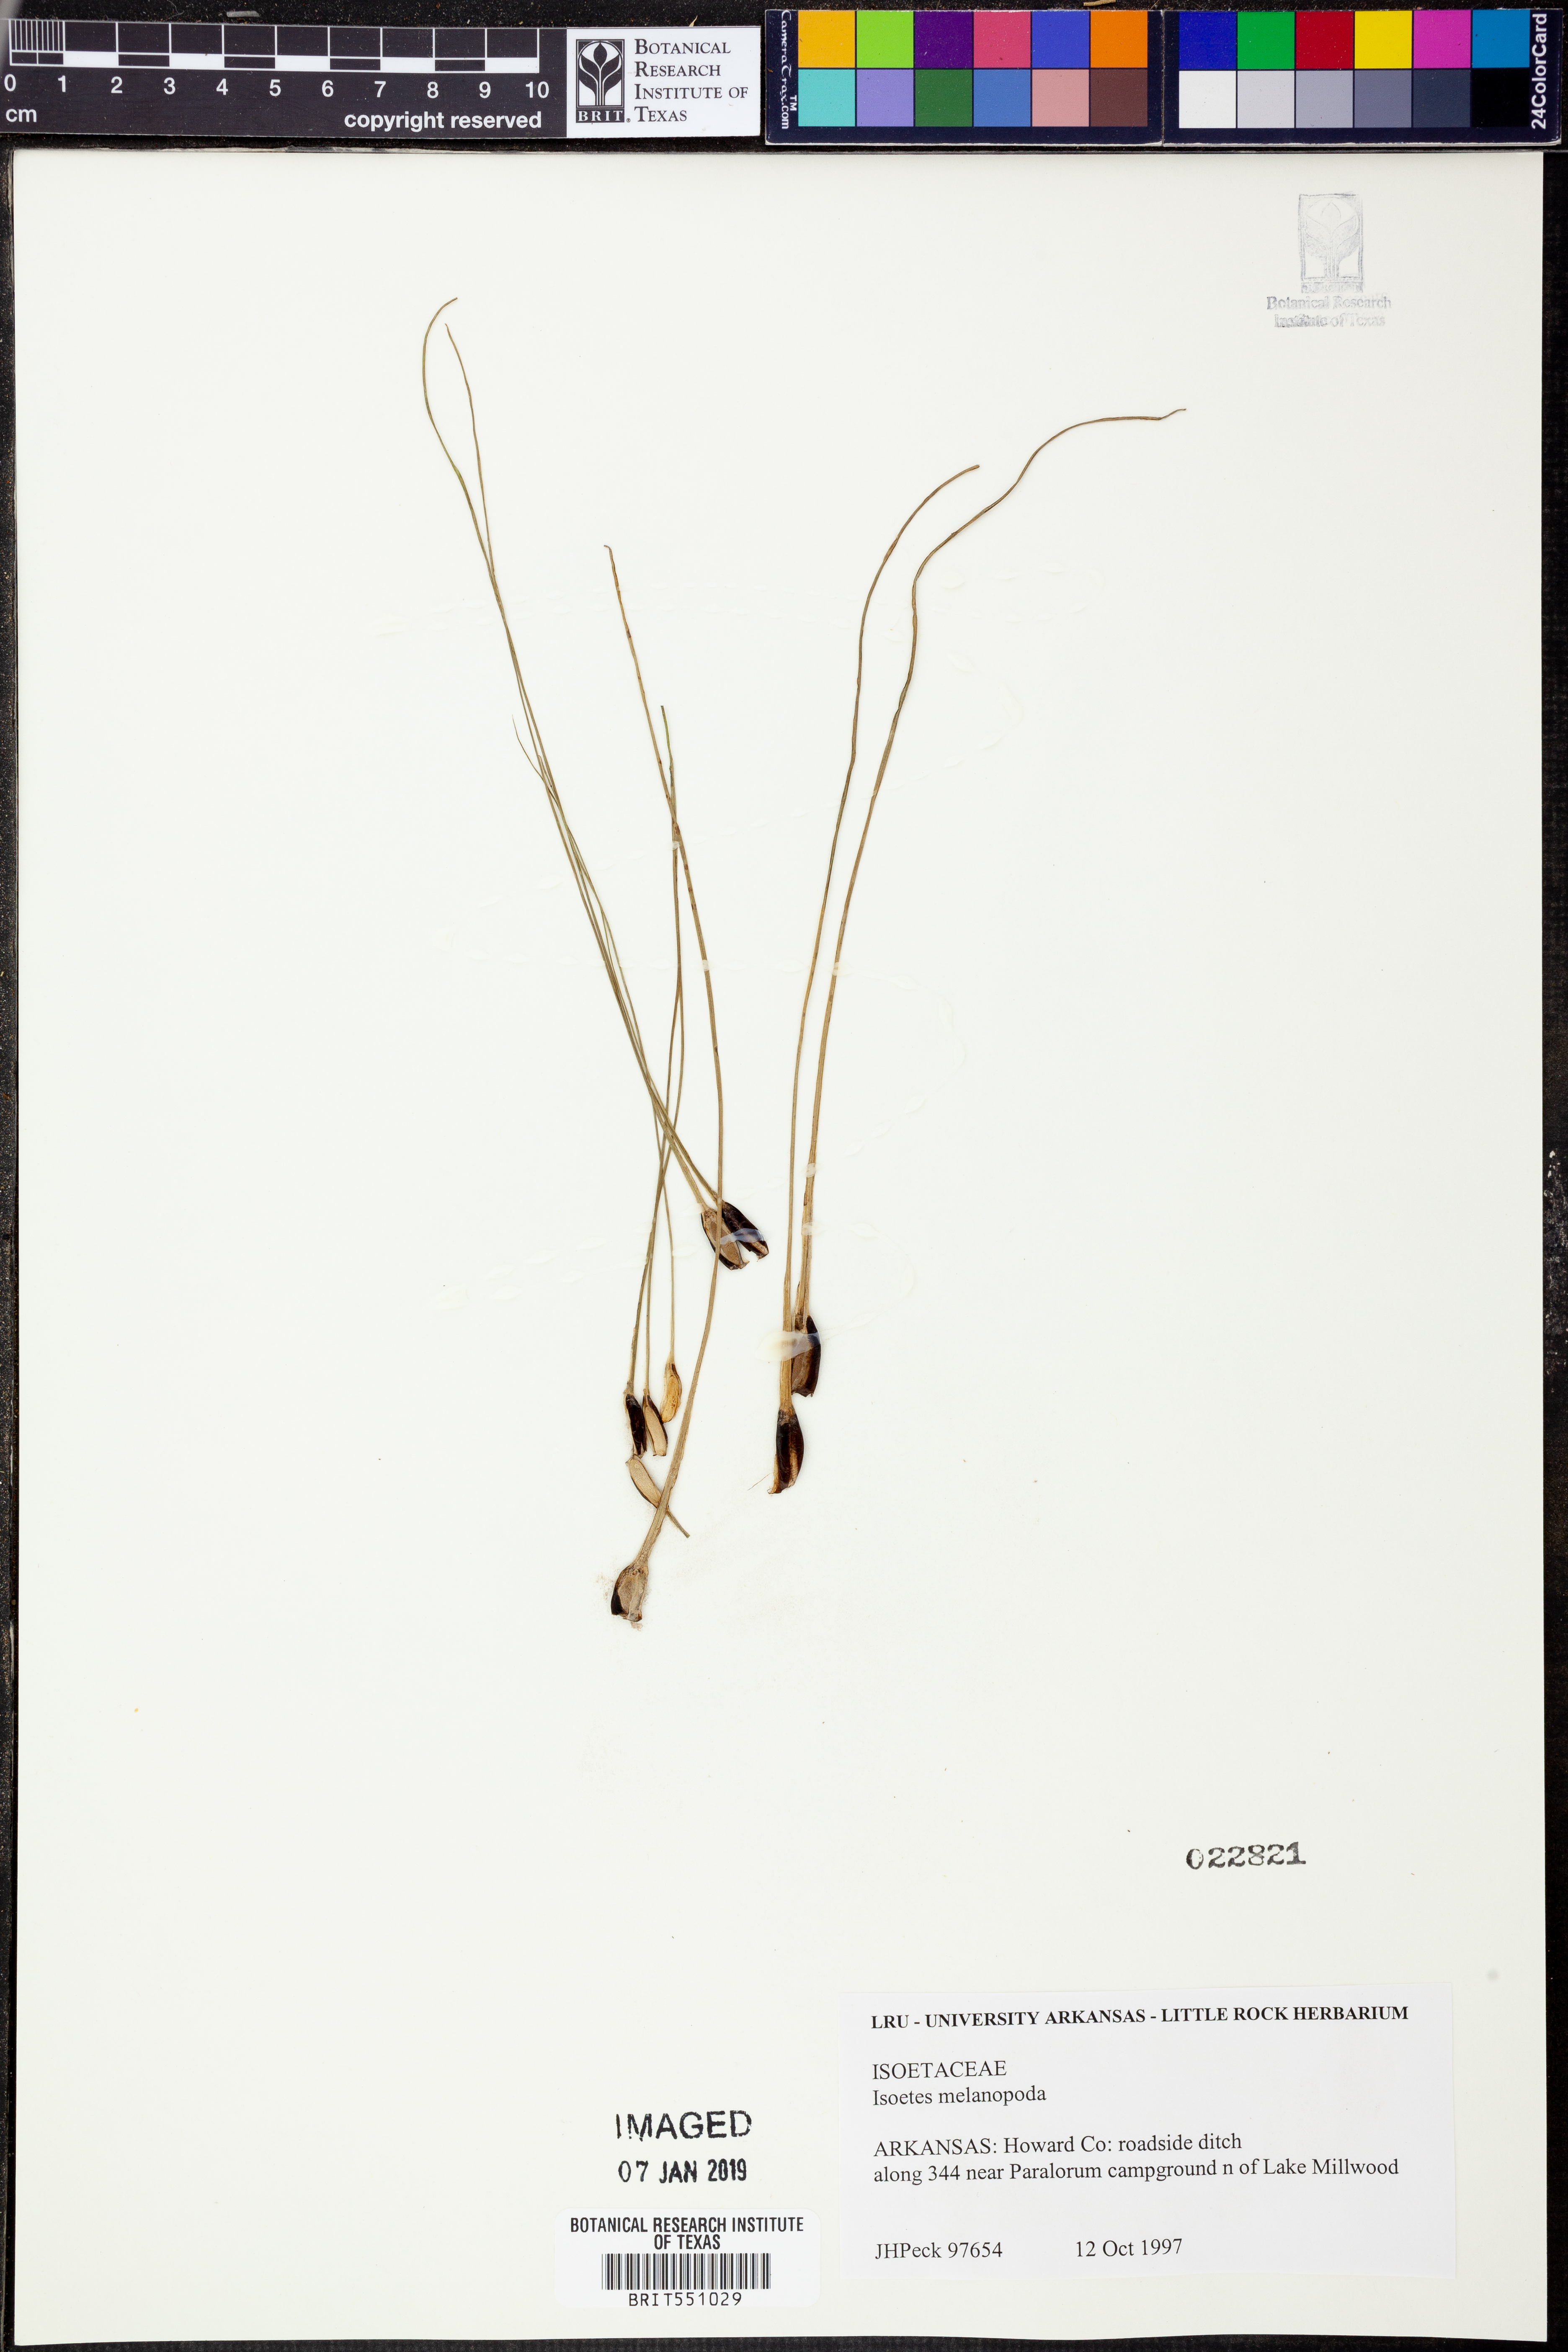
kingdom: Plantae
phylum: Tracheophyta
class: Lycopodiopsida
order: Isoetales
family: Isoetaceae
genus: Isoetes
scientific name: Isoetes melanopoda
